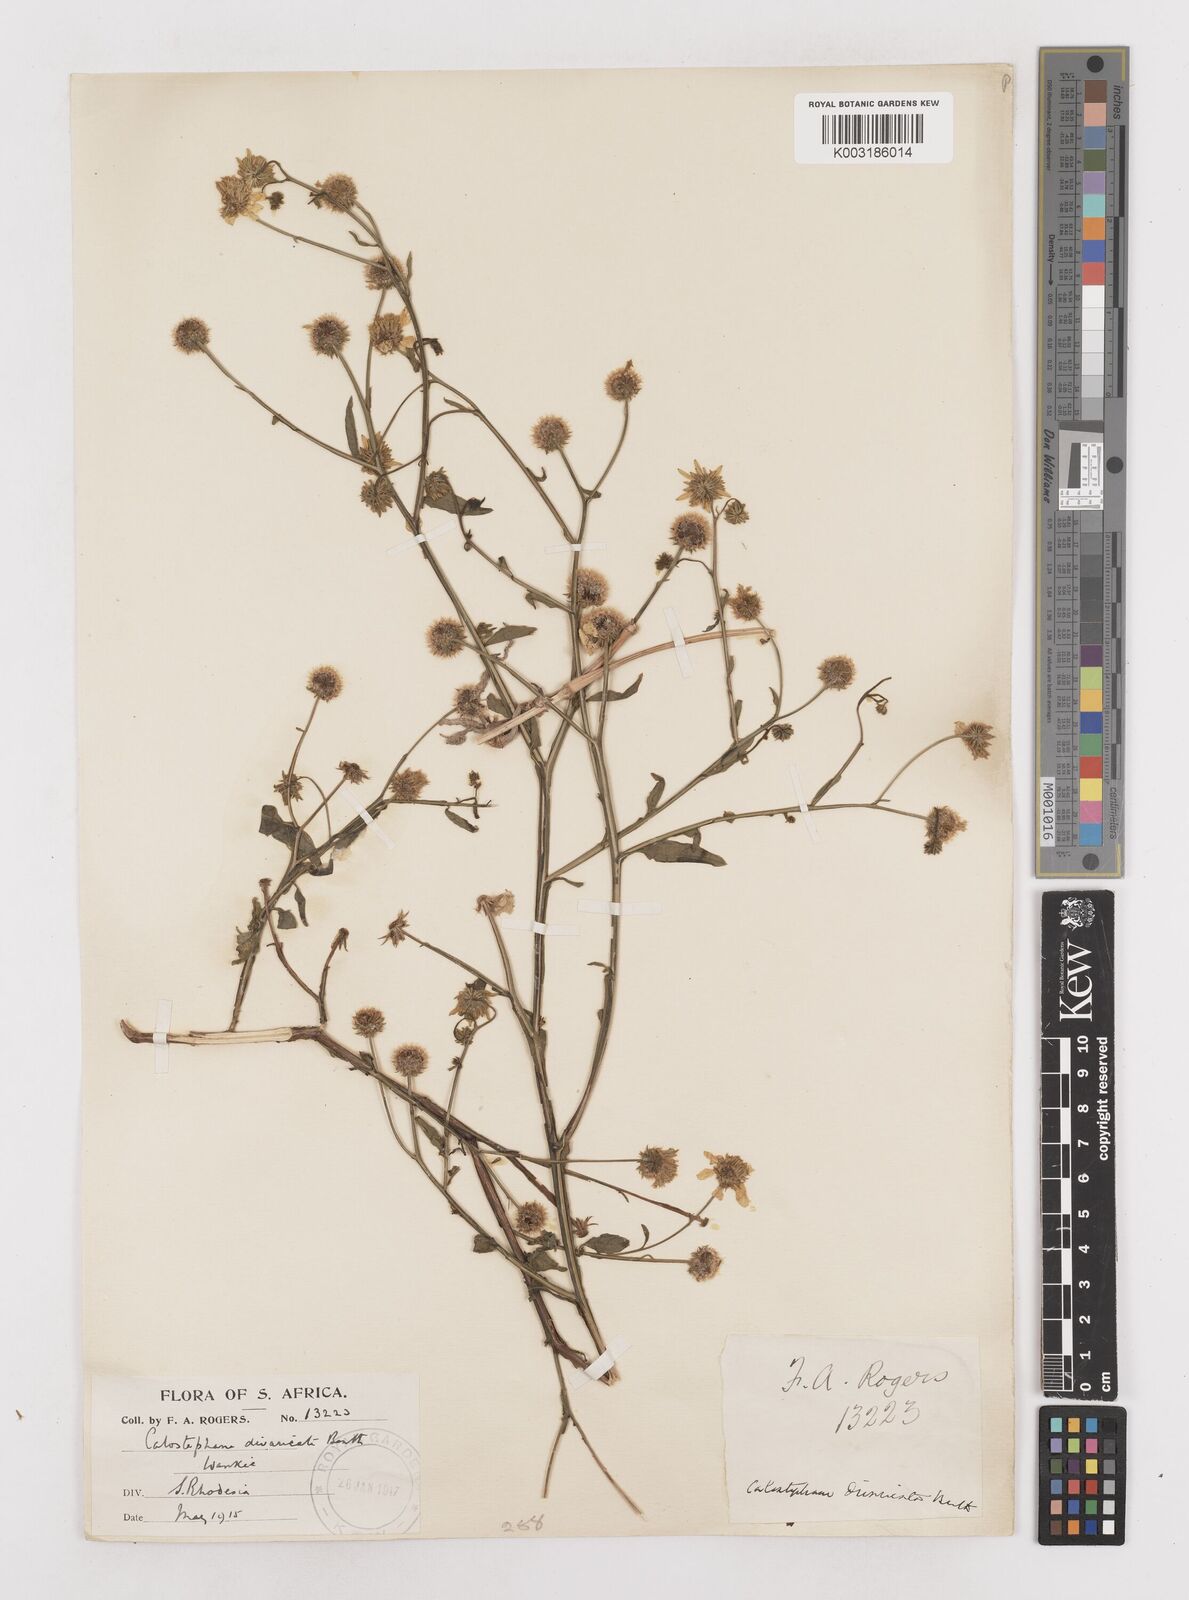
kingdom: Plantae
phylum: Tracheophyta
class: Magnoliopsida
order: Asterales
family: Asteraceae
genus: Calostephane
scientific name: Calostephane divaricata
